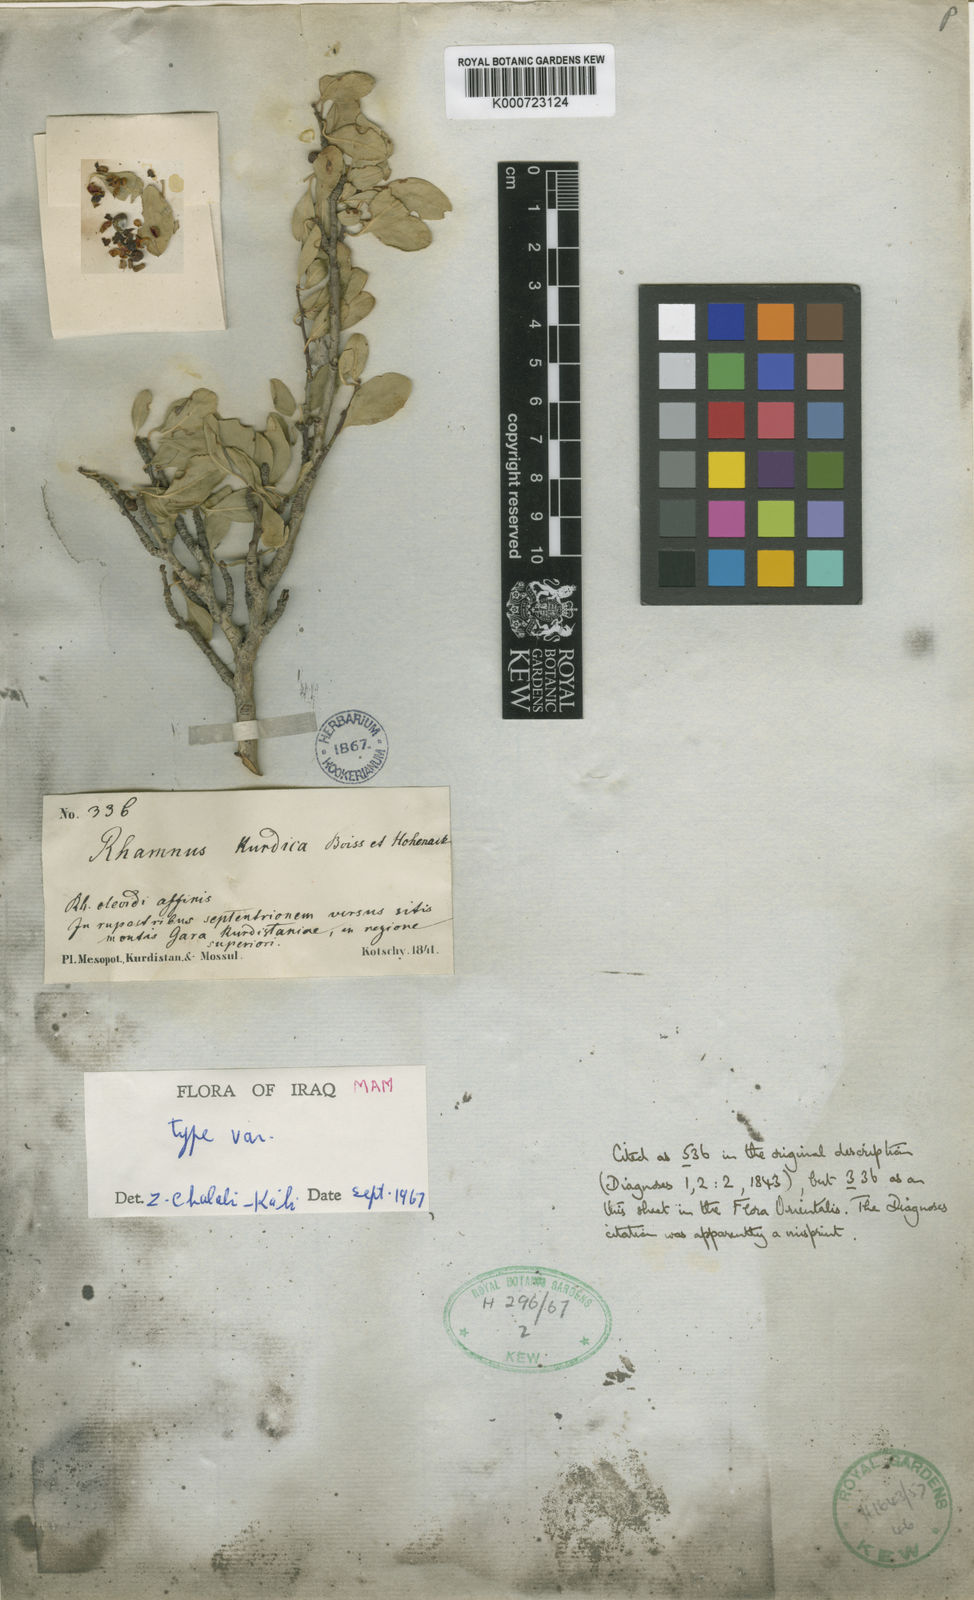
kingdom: Plantae
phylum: Tracheophyta
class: Magnoliopsida
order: Rosales
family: Rhamnaceae
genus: Rhamnus
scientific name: Rhamnus kurdica
